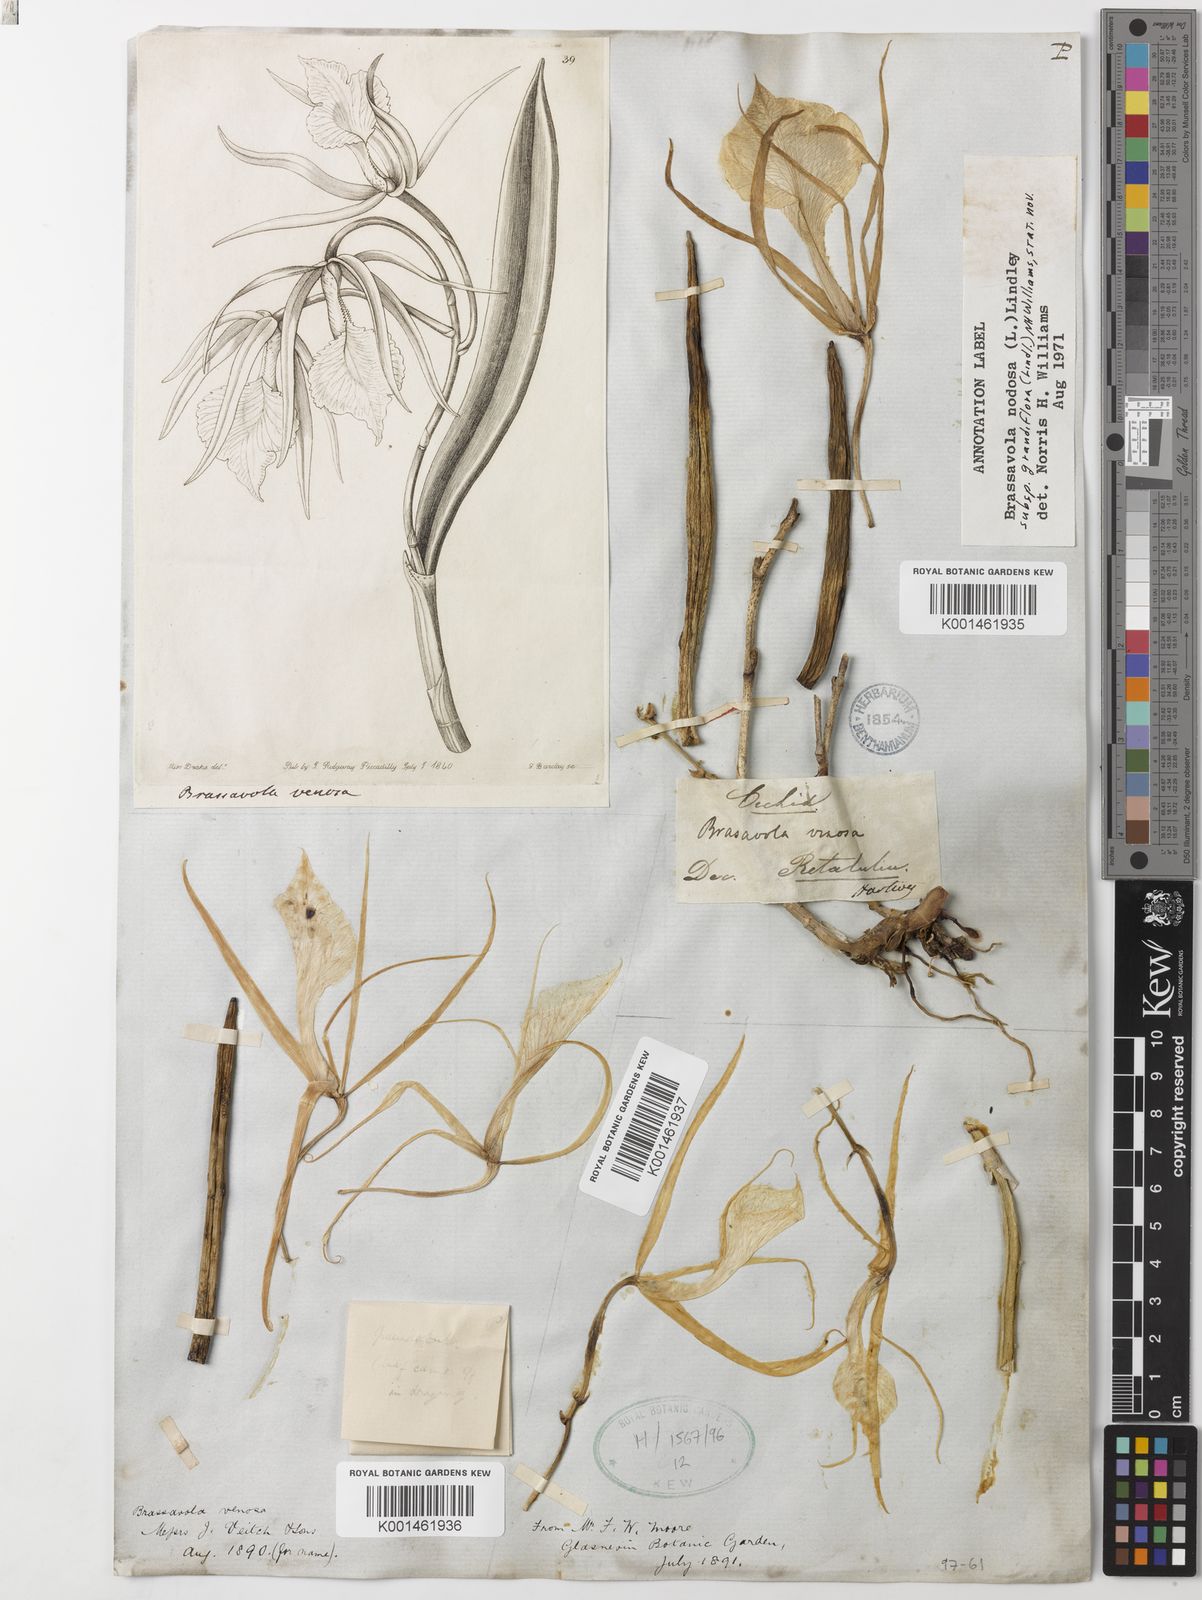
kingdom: Plantae
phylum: Tracheophyta
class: Liliopsida
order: Asparagales
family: Orchidaceae
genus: Brassavola
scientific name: Brassavola nodosa
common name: Lady of the night
